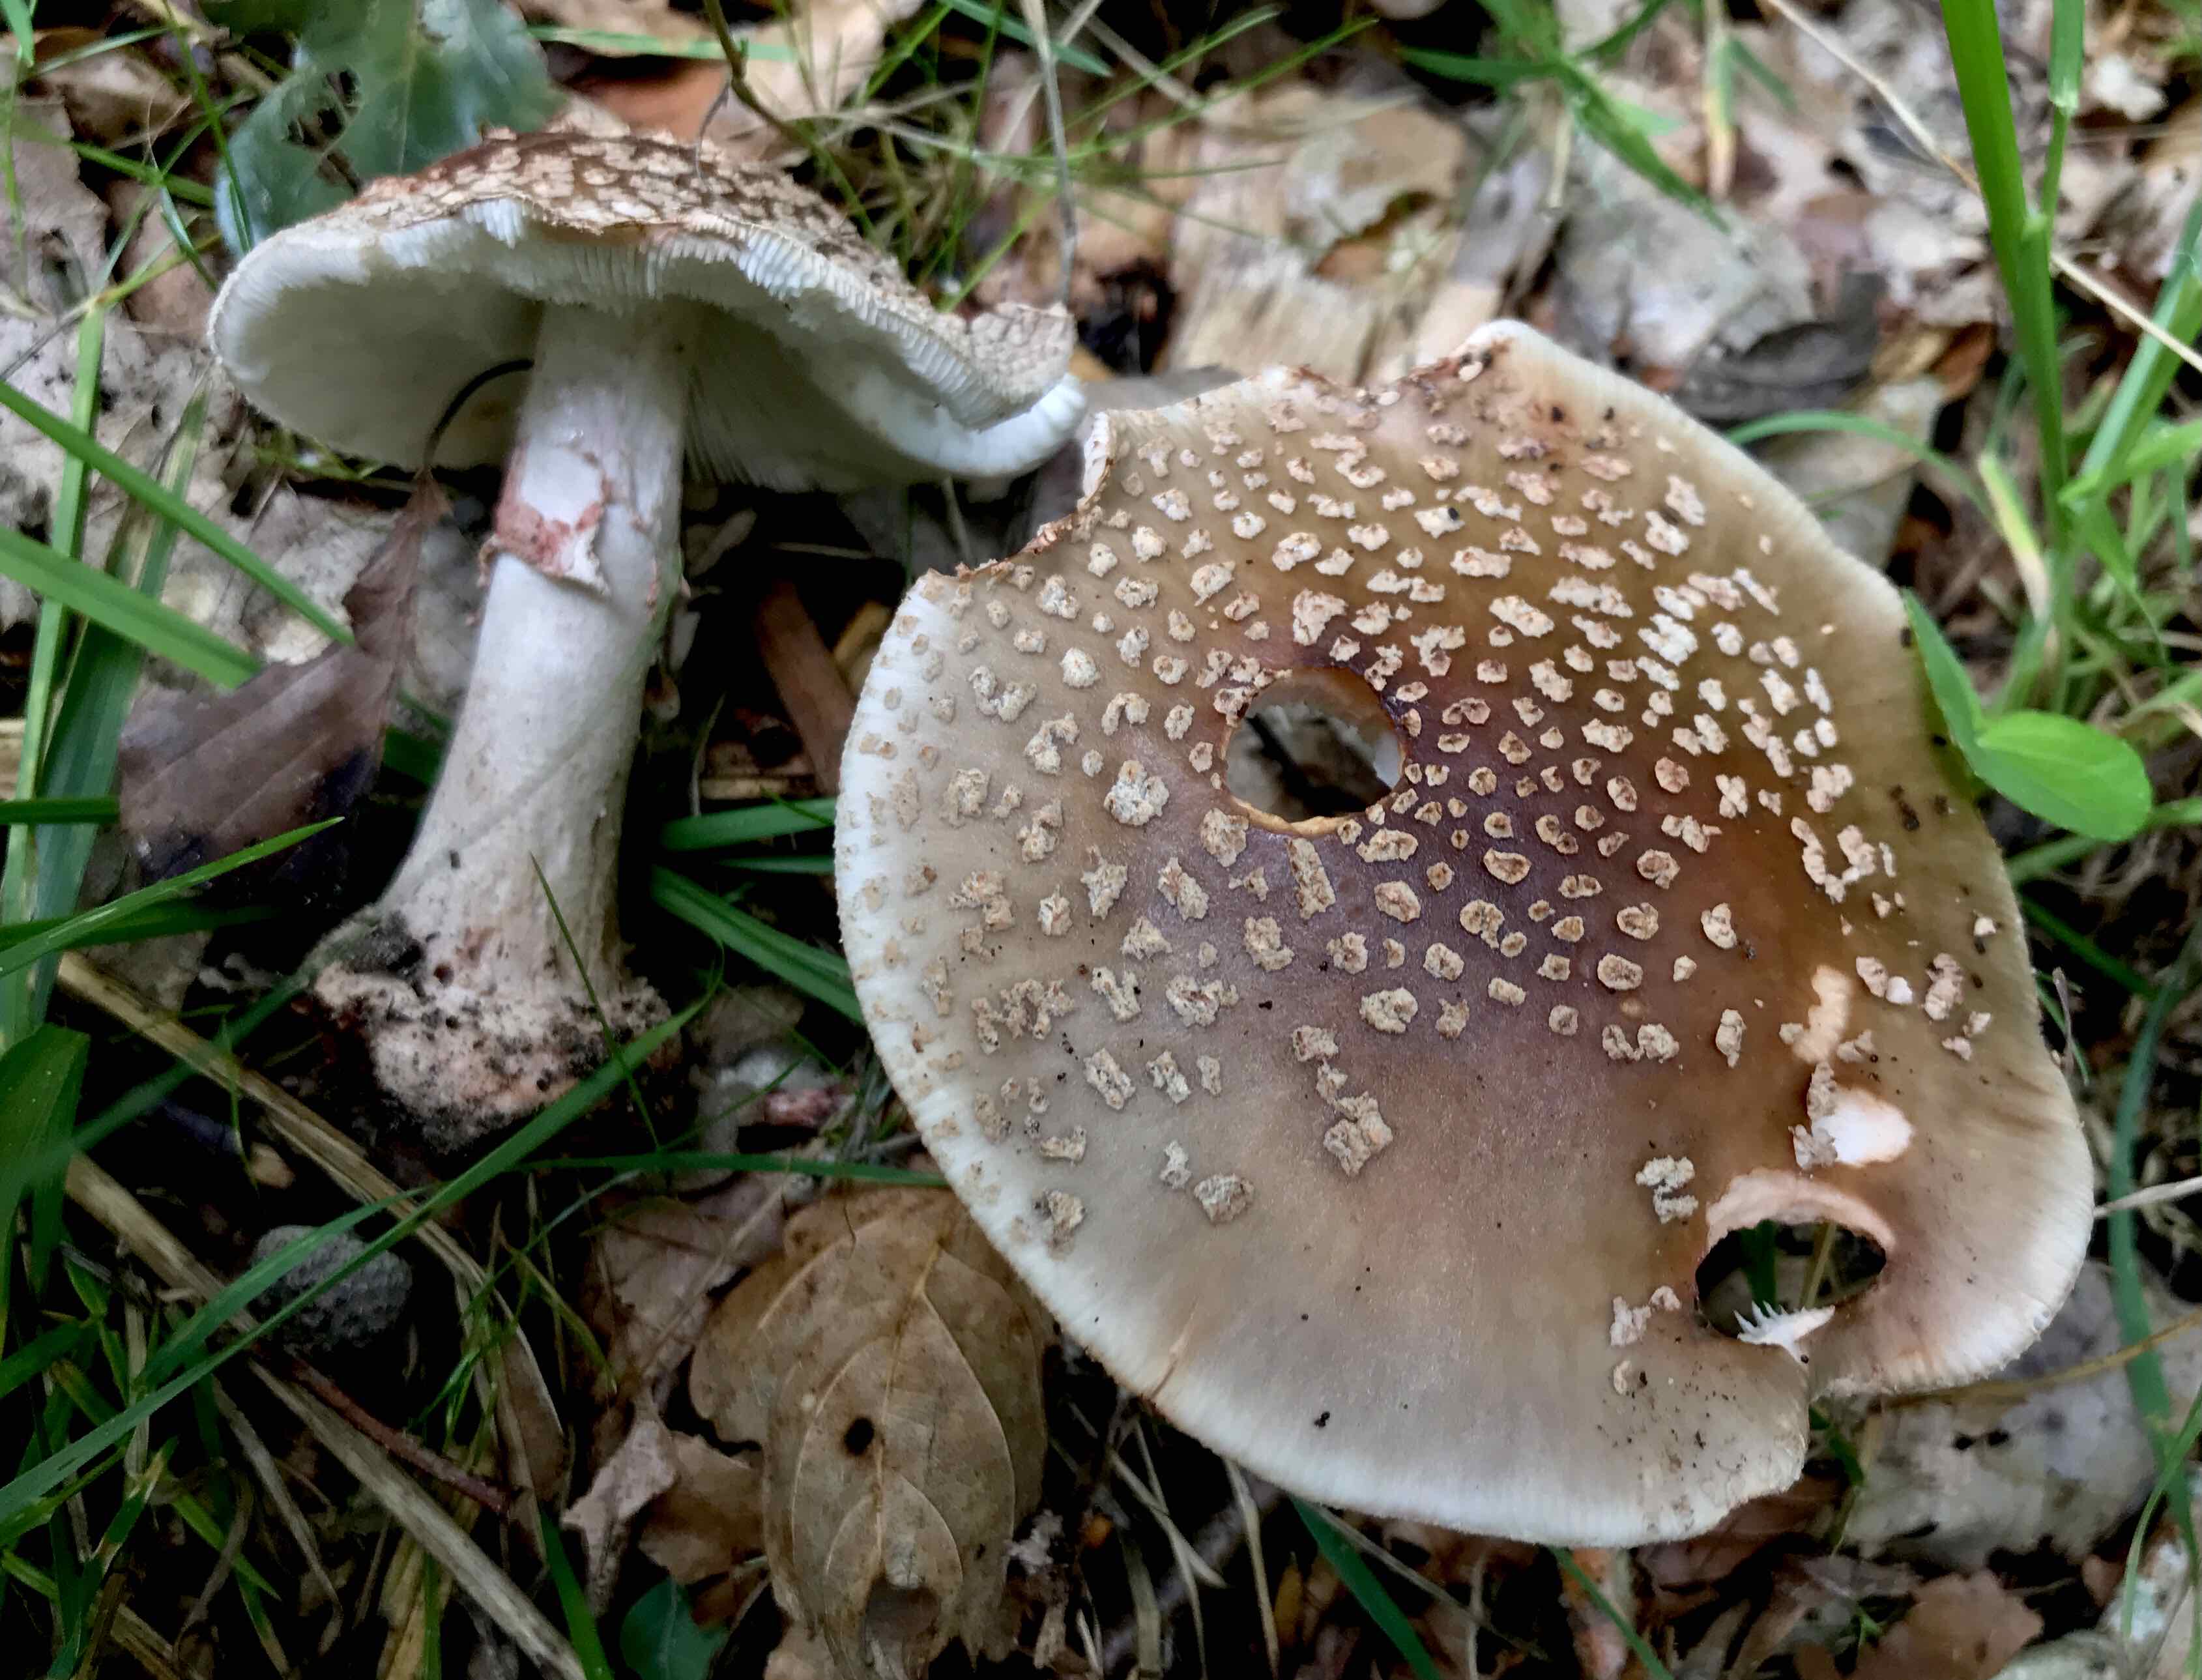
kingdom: Fungi
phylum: Basidiomycota
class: Agaricomycetes
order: Agaricales
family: Amanitaceae
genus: Amanita
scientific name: Amanita rubescens
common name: rødmende fluesvamp
